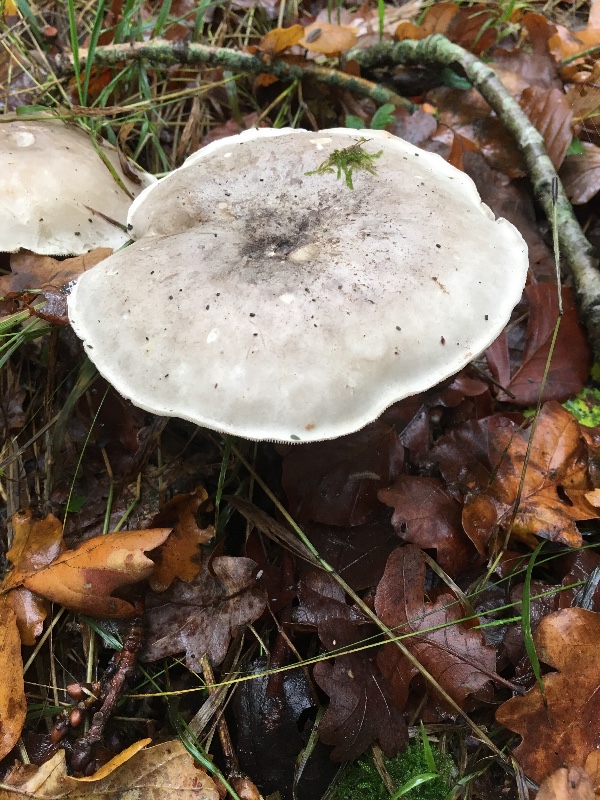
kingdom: Fungi
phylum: Basidiomycota
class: Agaricomycetes
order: Agaricales
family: Tricholomataceae
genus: Clitocybe
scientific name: Clitocybe nebularis
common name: tåge-tragthat
